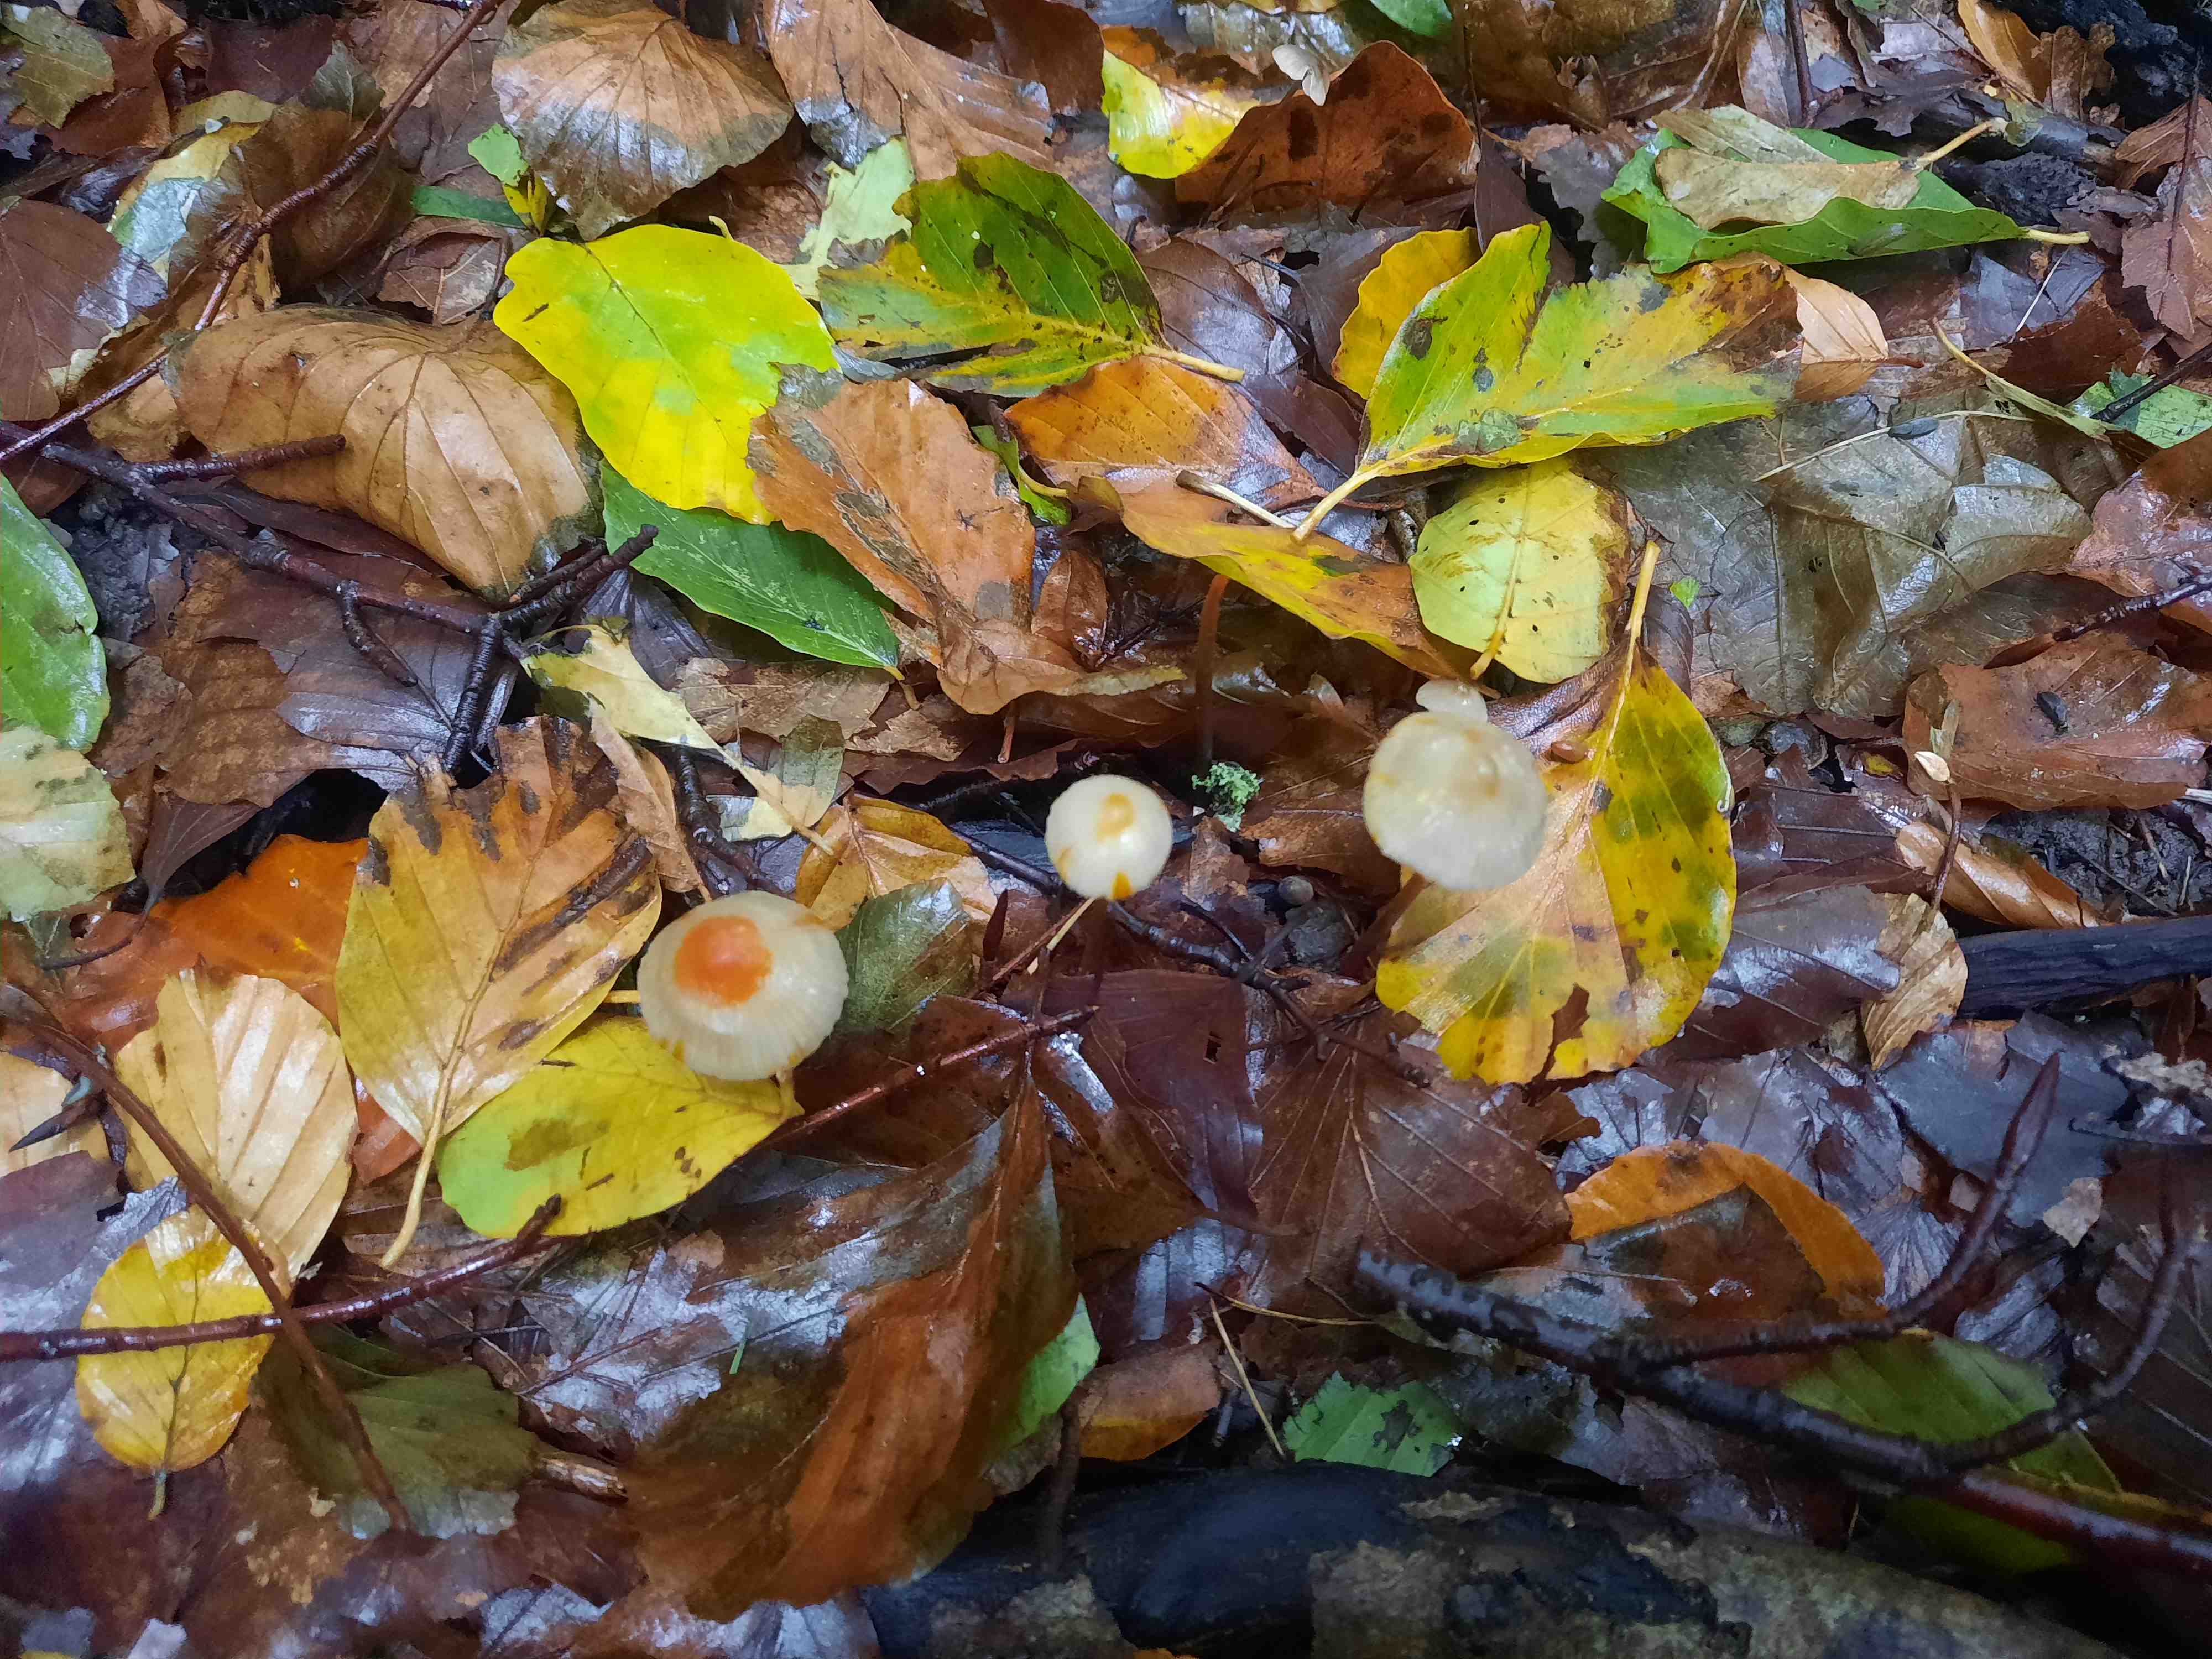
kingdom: Fungi
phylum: Basidiomycota
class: Agaricomycetes
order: Agaricales
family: Mycenaceae
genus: Mycena
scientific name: Mycena crocata
